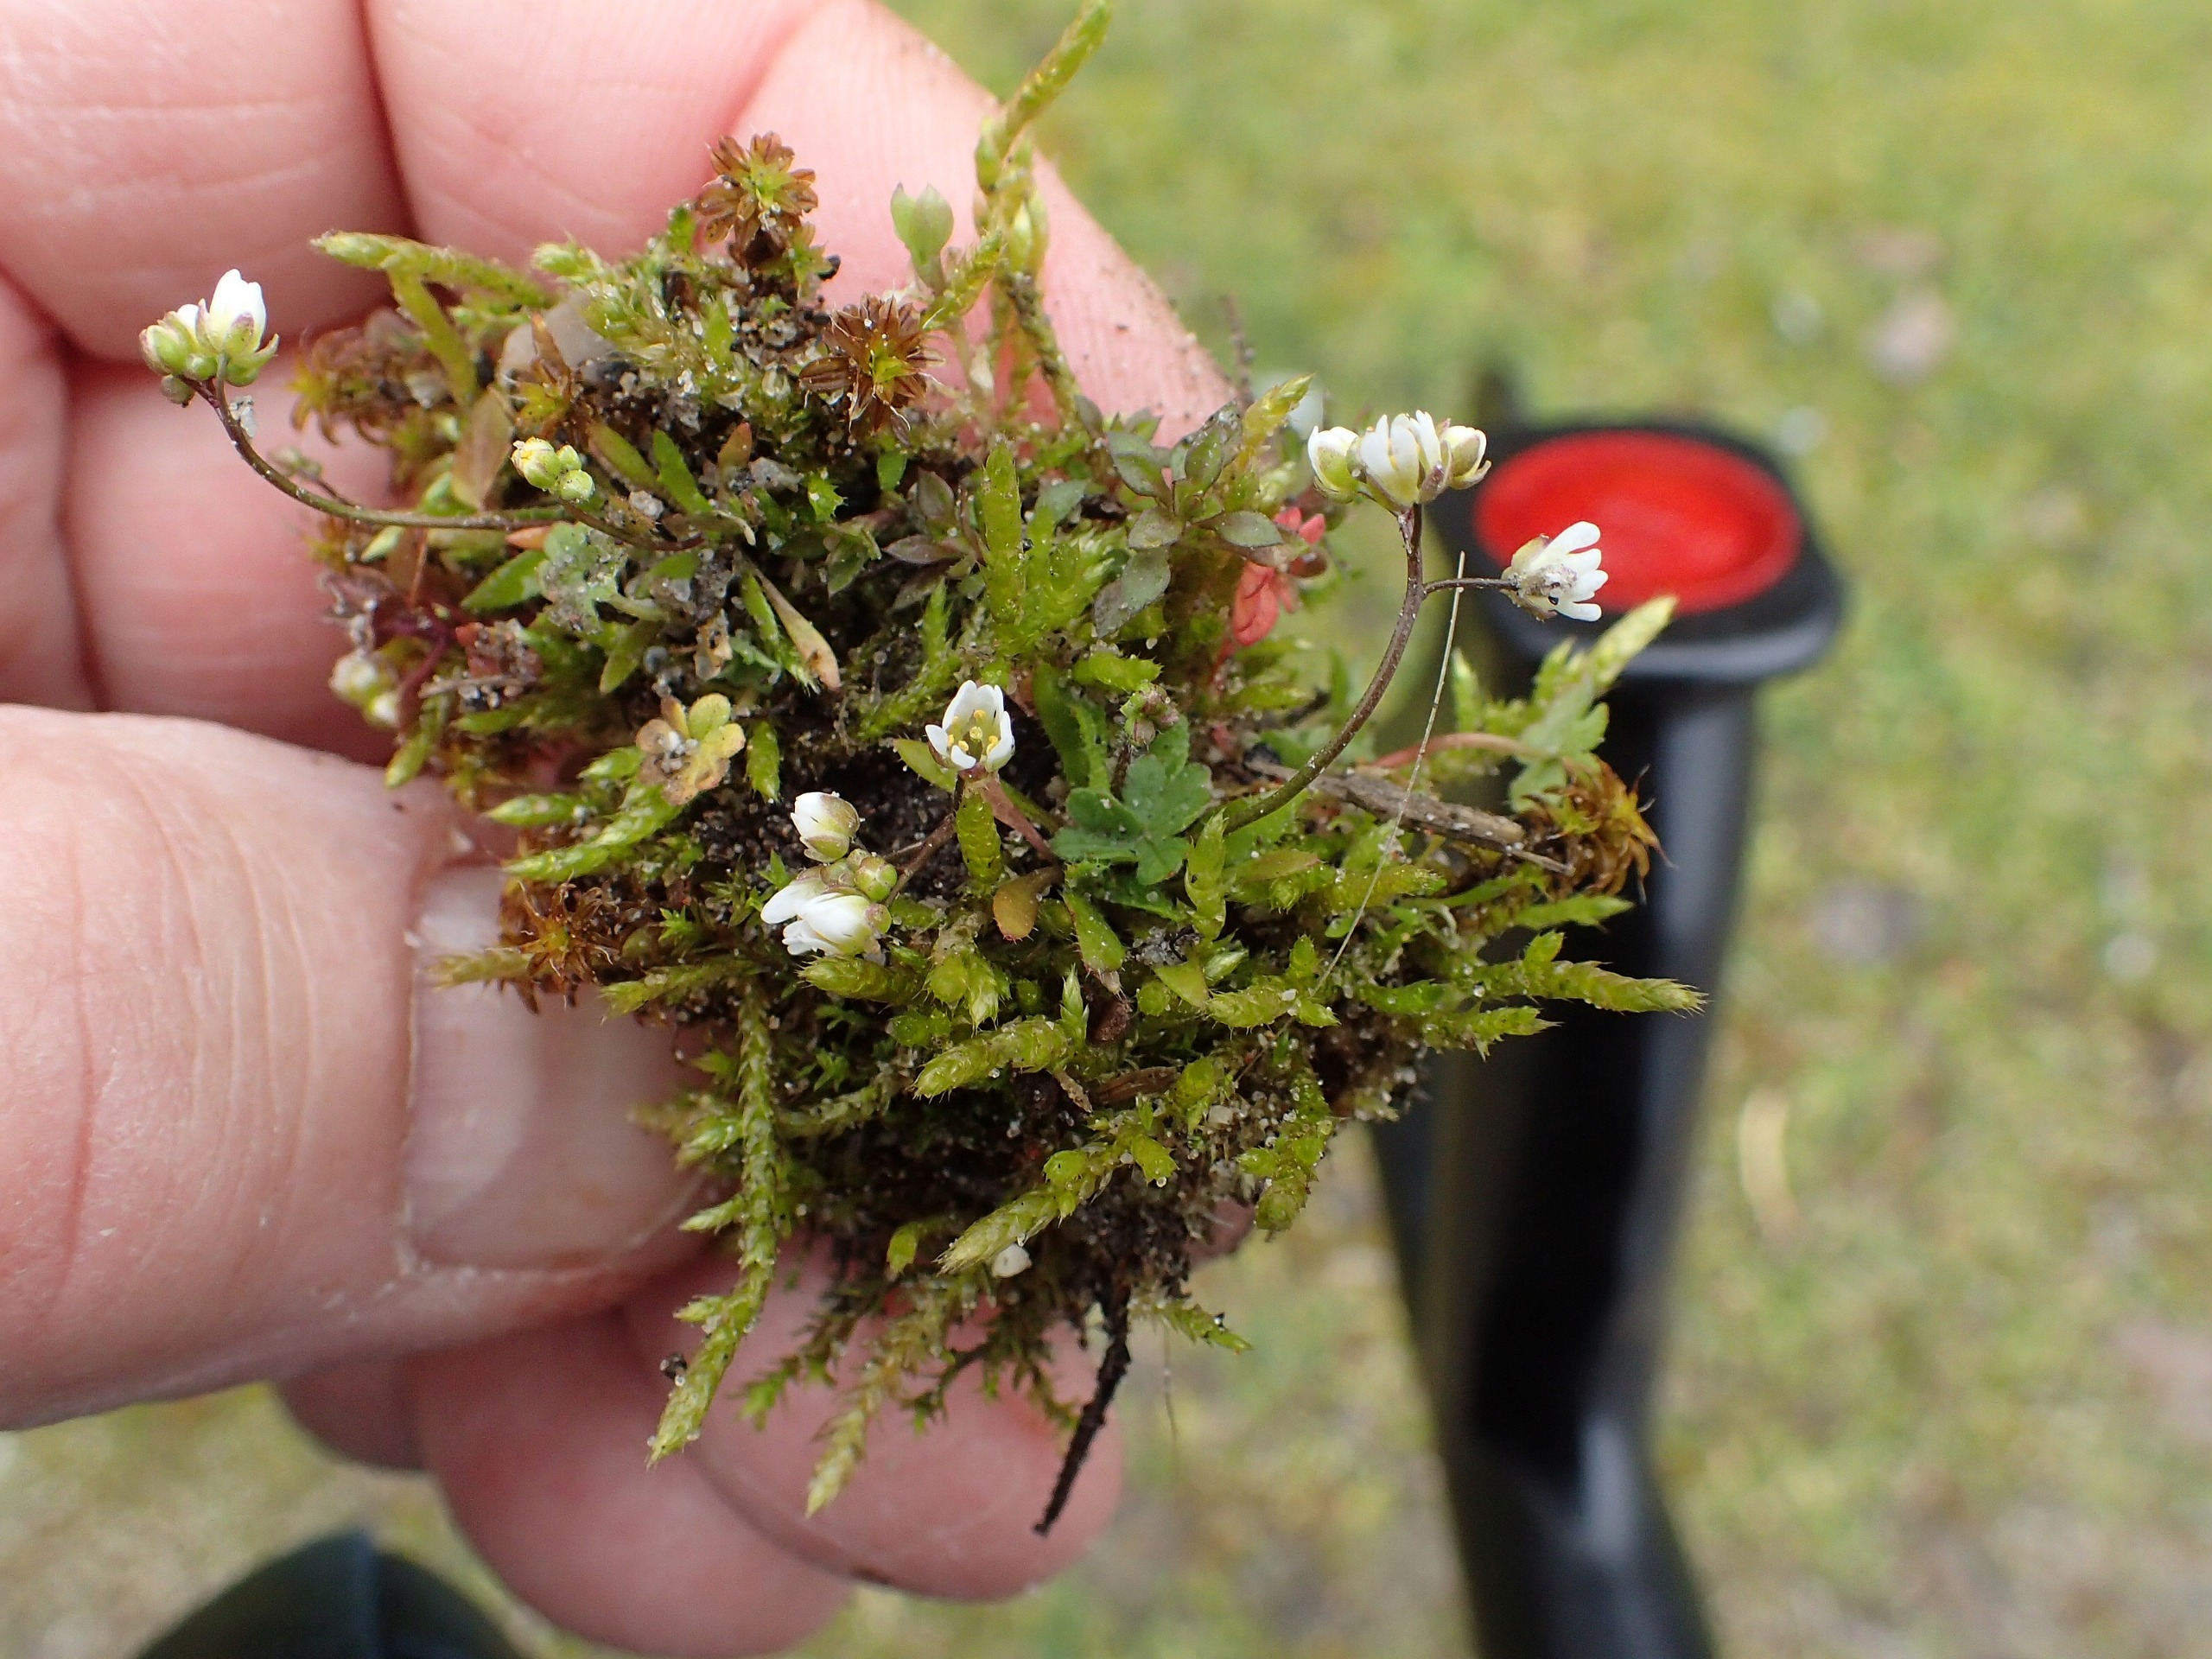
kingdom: Plantae
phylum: Tracheophyta
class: Magnoliopsida
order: Brassicales
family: Brassicaceae
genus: Draba
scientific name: Draba verna
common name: Vår-gæslingeblomst
